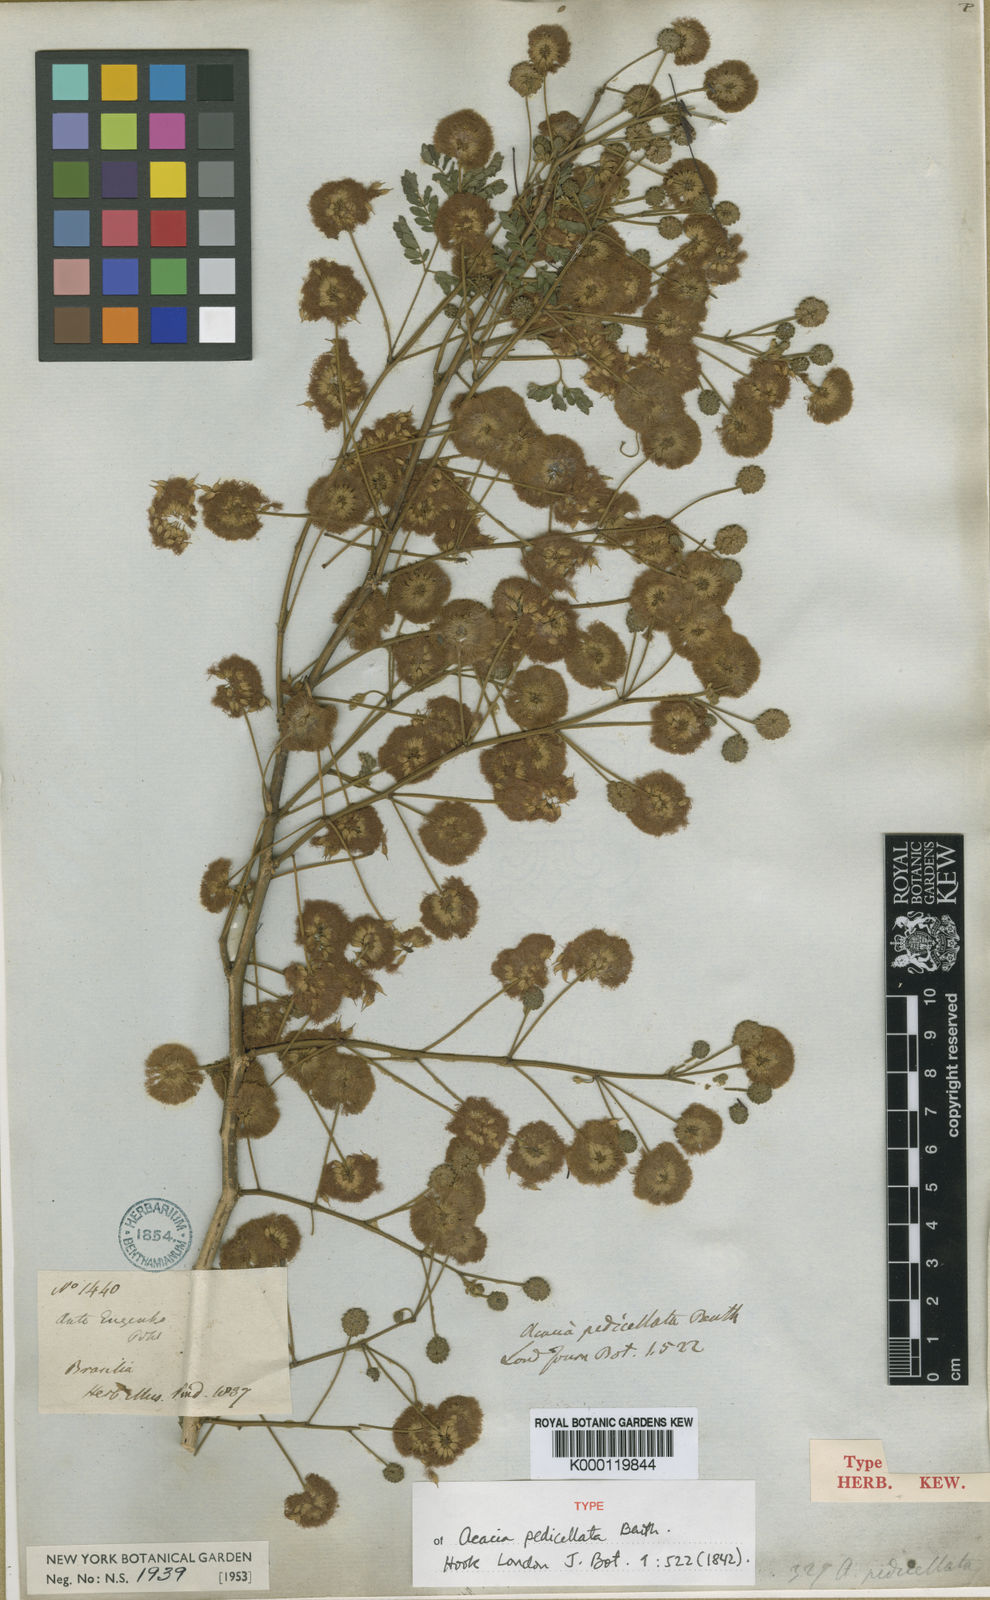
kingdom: Plantae
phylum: Tracheophyta
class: Magnoliopsida
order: Fabales
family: Fabaceae
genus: Senegalia
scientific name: Senegalia pedicellata
